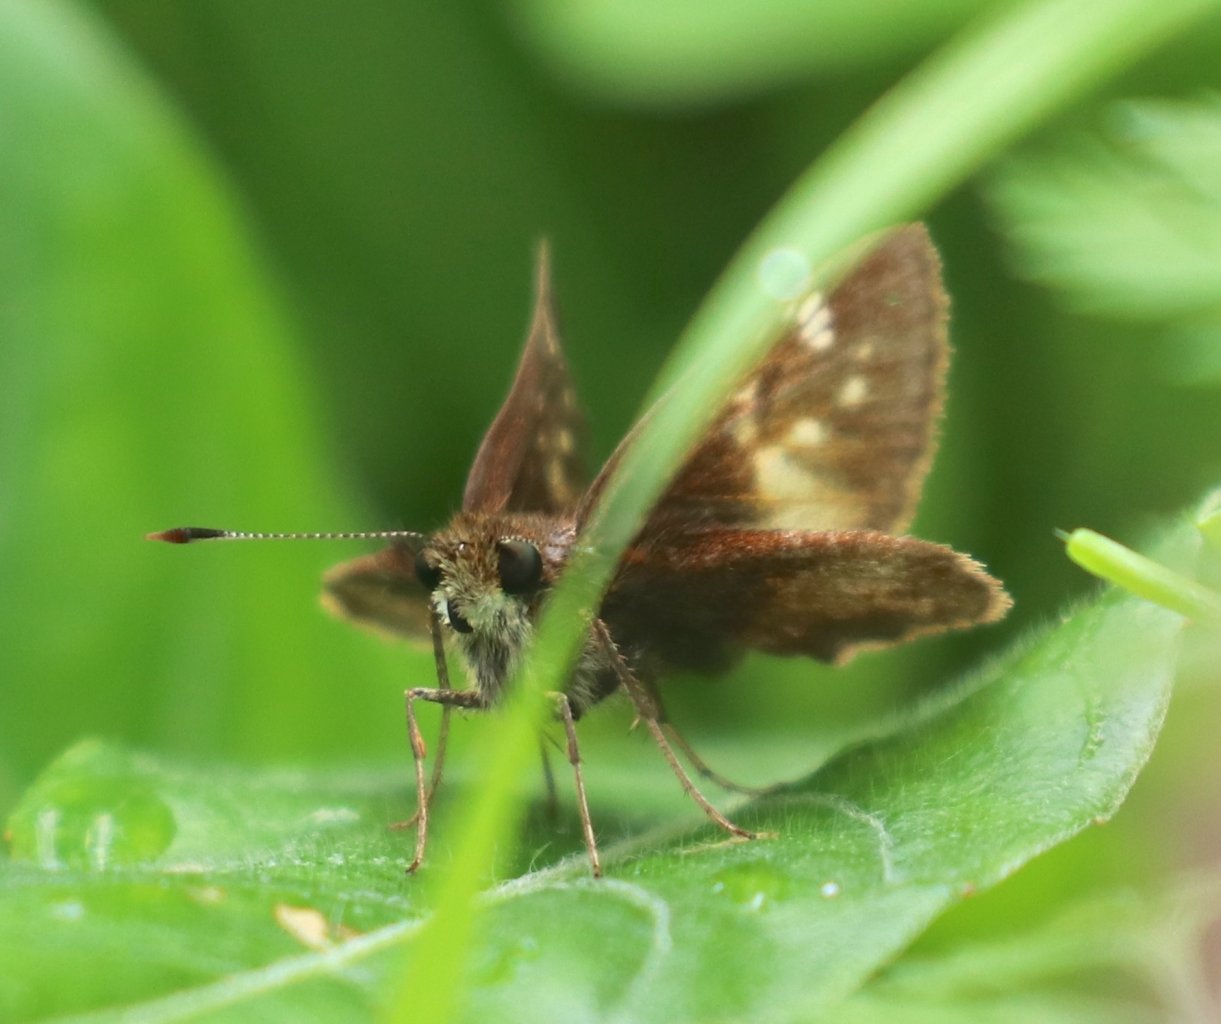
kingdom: Animalia
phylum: Arthropoda
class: Insecta
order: Lepidoptera
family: Hesperiidae
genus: Lon
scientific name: Lon hobomok
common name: Hobomok Skipper
